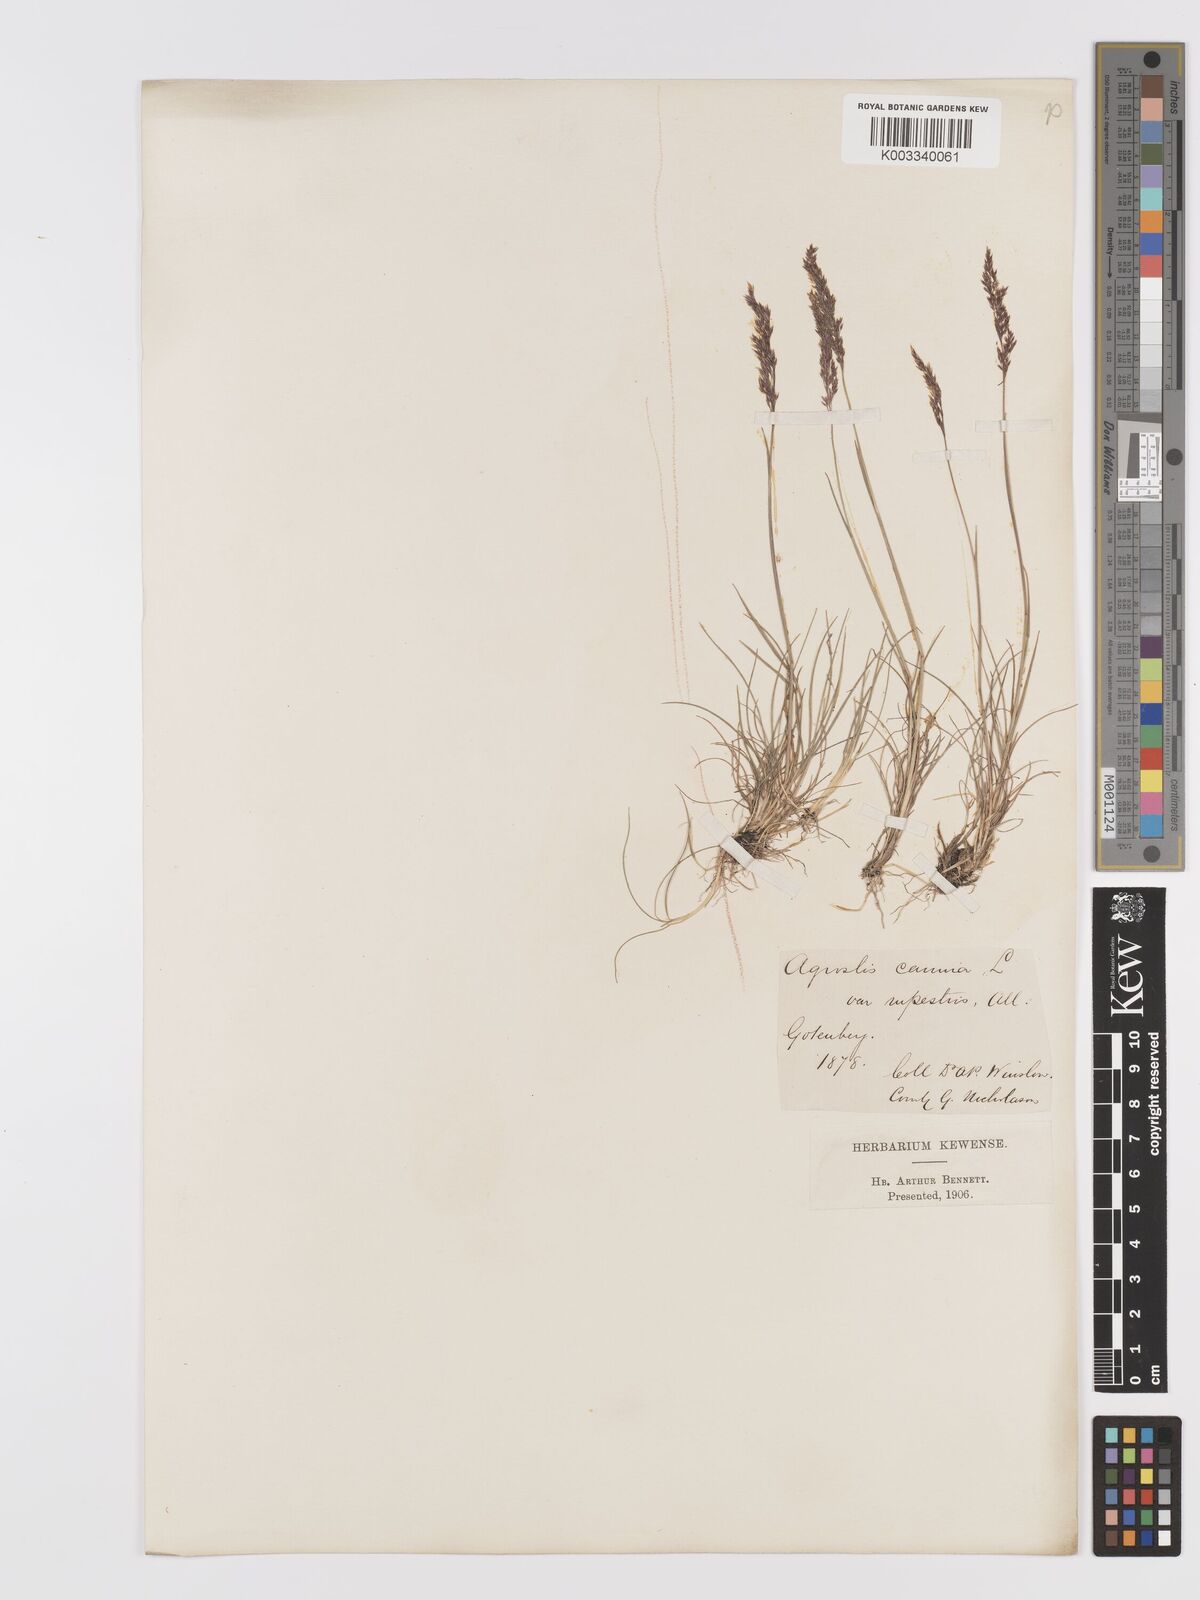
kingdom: Plantae
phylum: Tracheophyta
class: Liliopsida
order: Poales
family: Poaceae
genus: Agrostis
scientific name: Agrostis rupestris
